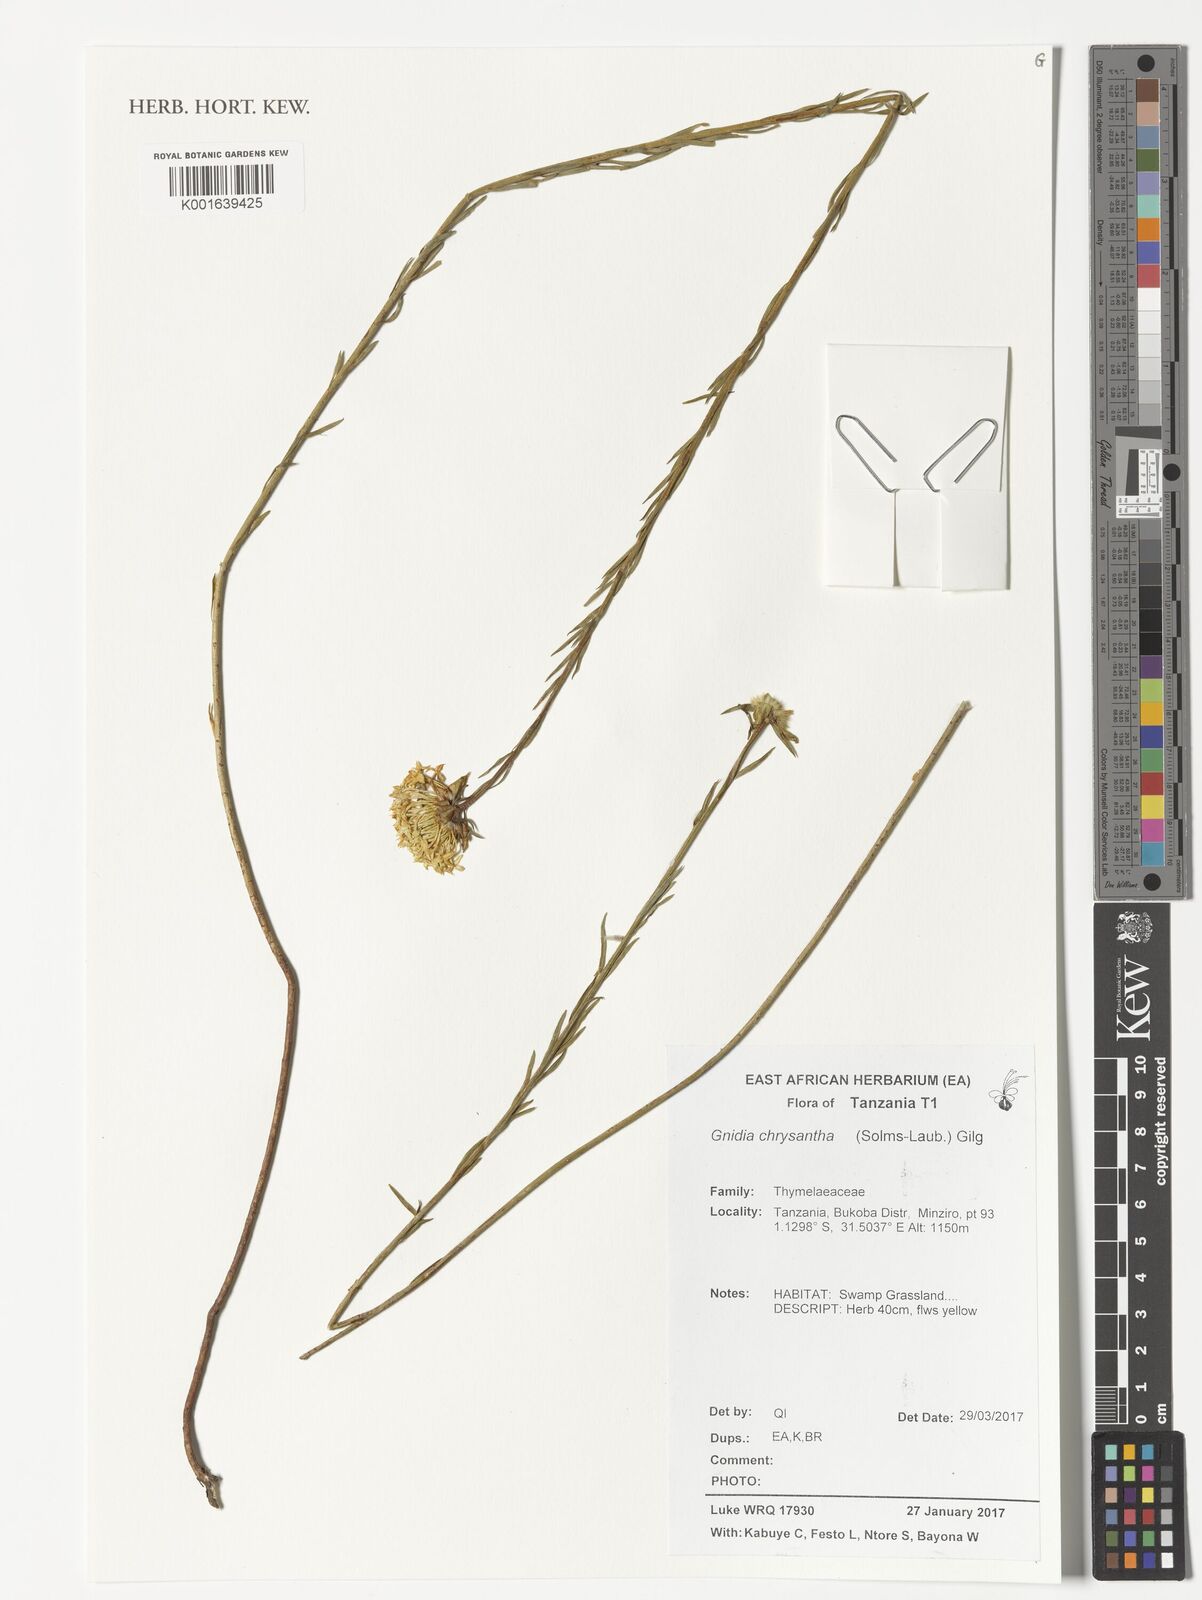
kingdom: Plantae
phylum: Tracheophyta
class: Magnoliopsida
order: Malvales
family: Thymelaeaceae
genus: Gnidia
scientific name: Gnidia chrysantha
